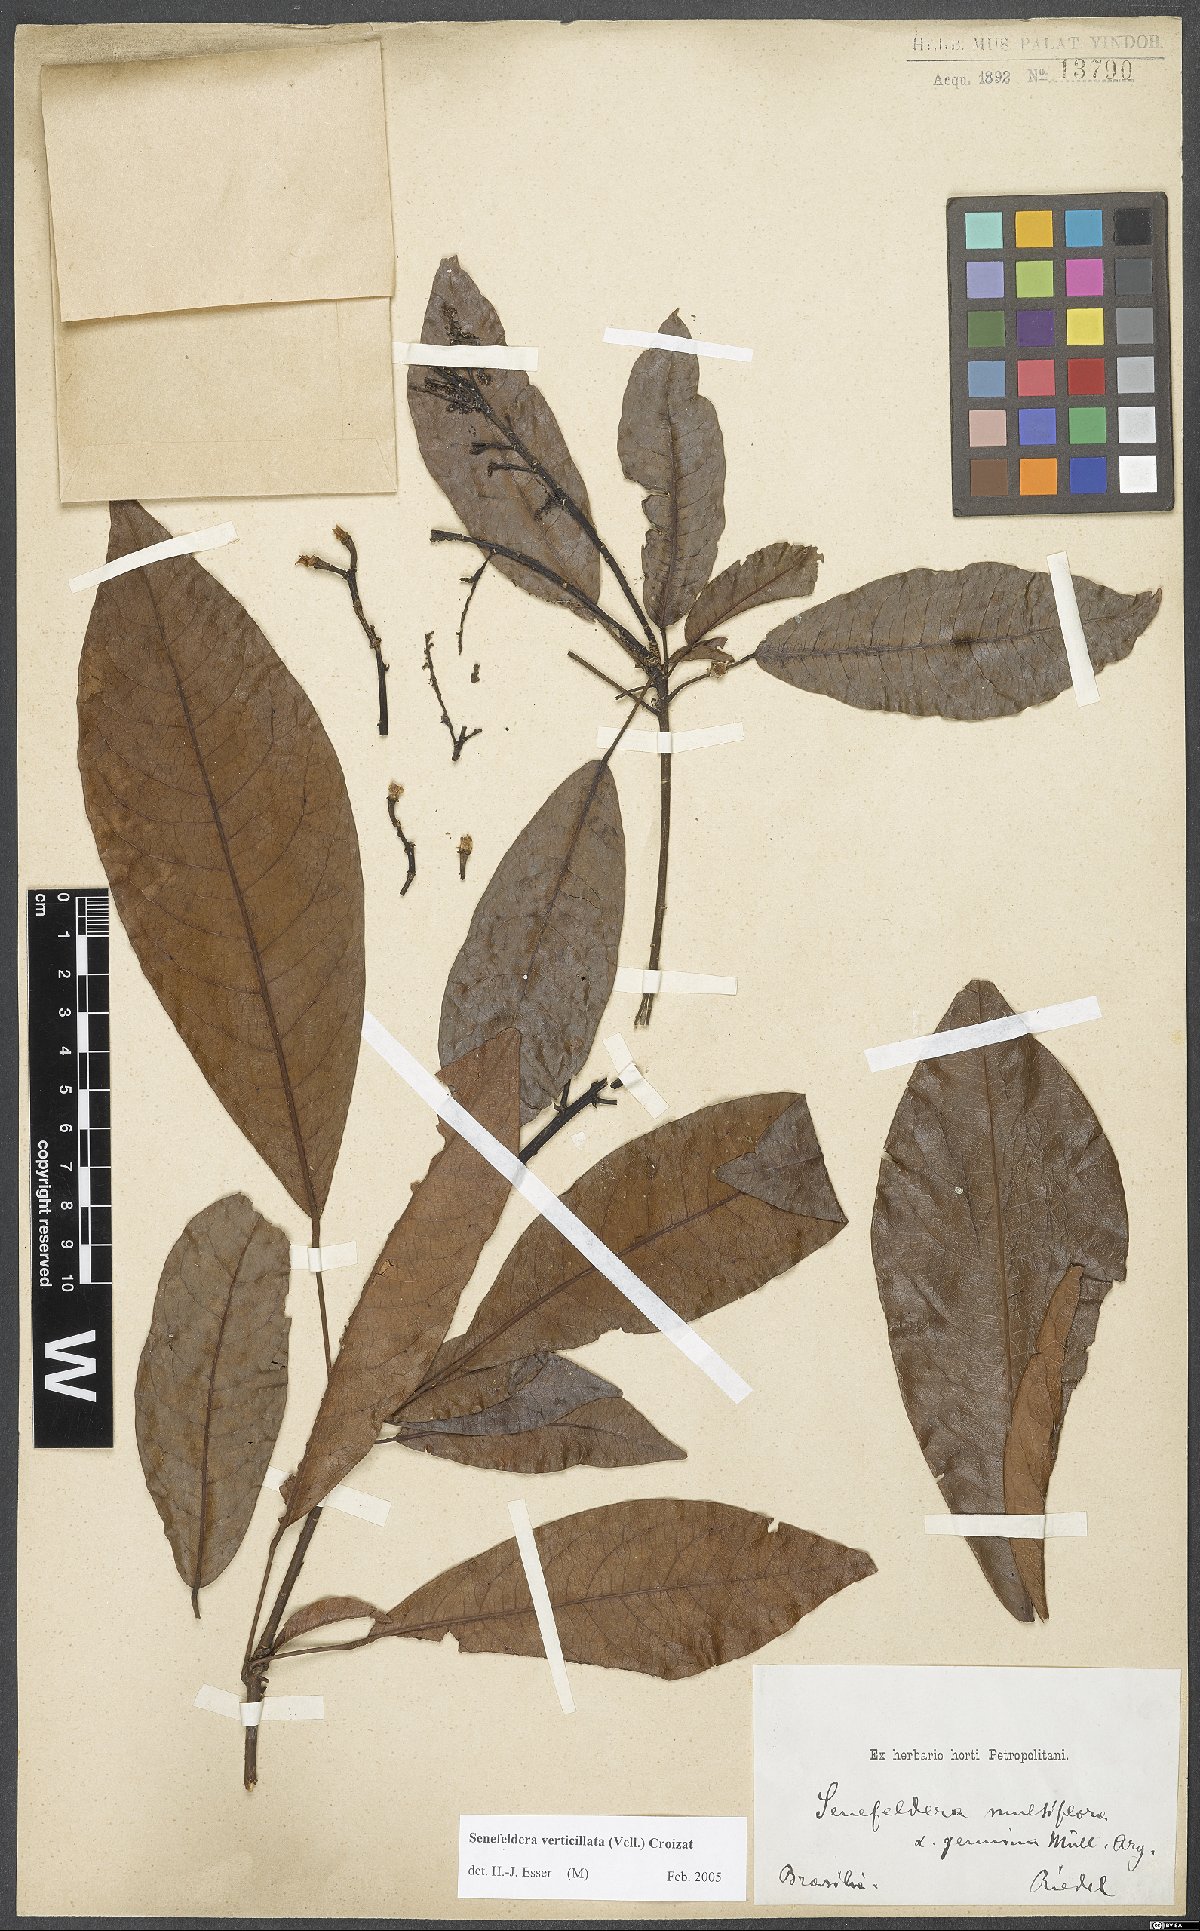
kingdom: Plantae
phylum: Tracheophyta
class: Magnoliopsida
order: Malpighiales
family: Euphorbiaceae
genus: Senefeldera
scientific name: Senefeldera verticillata
